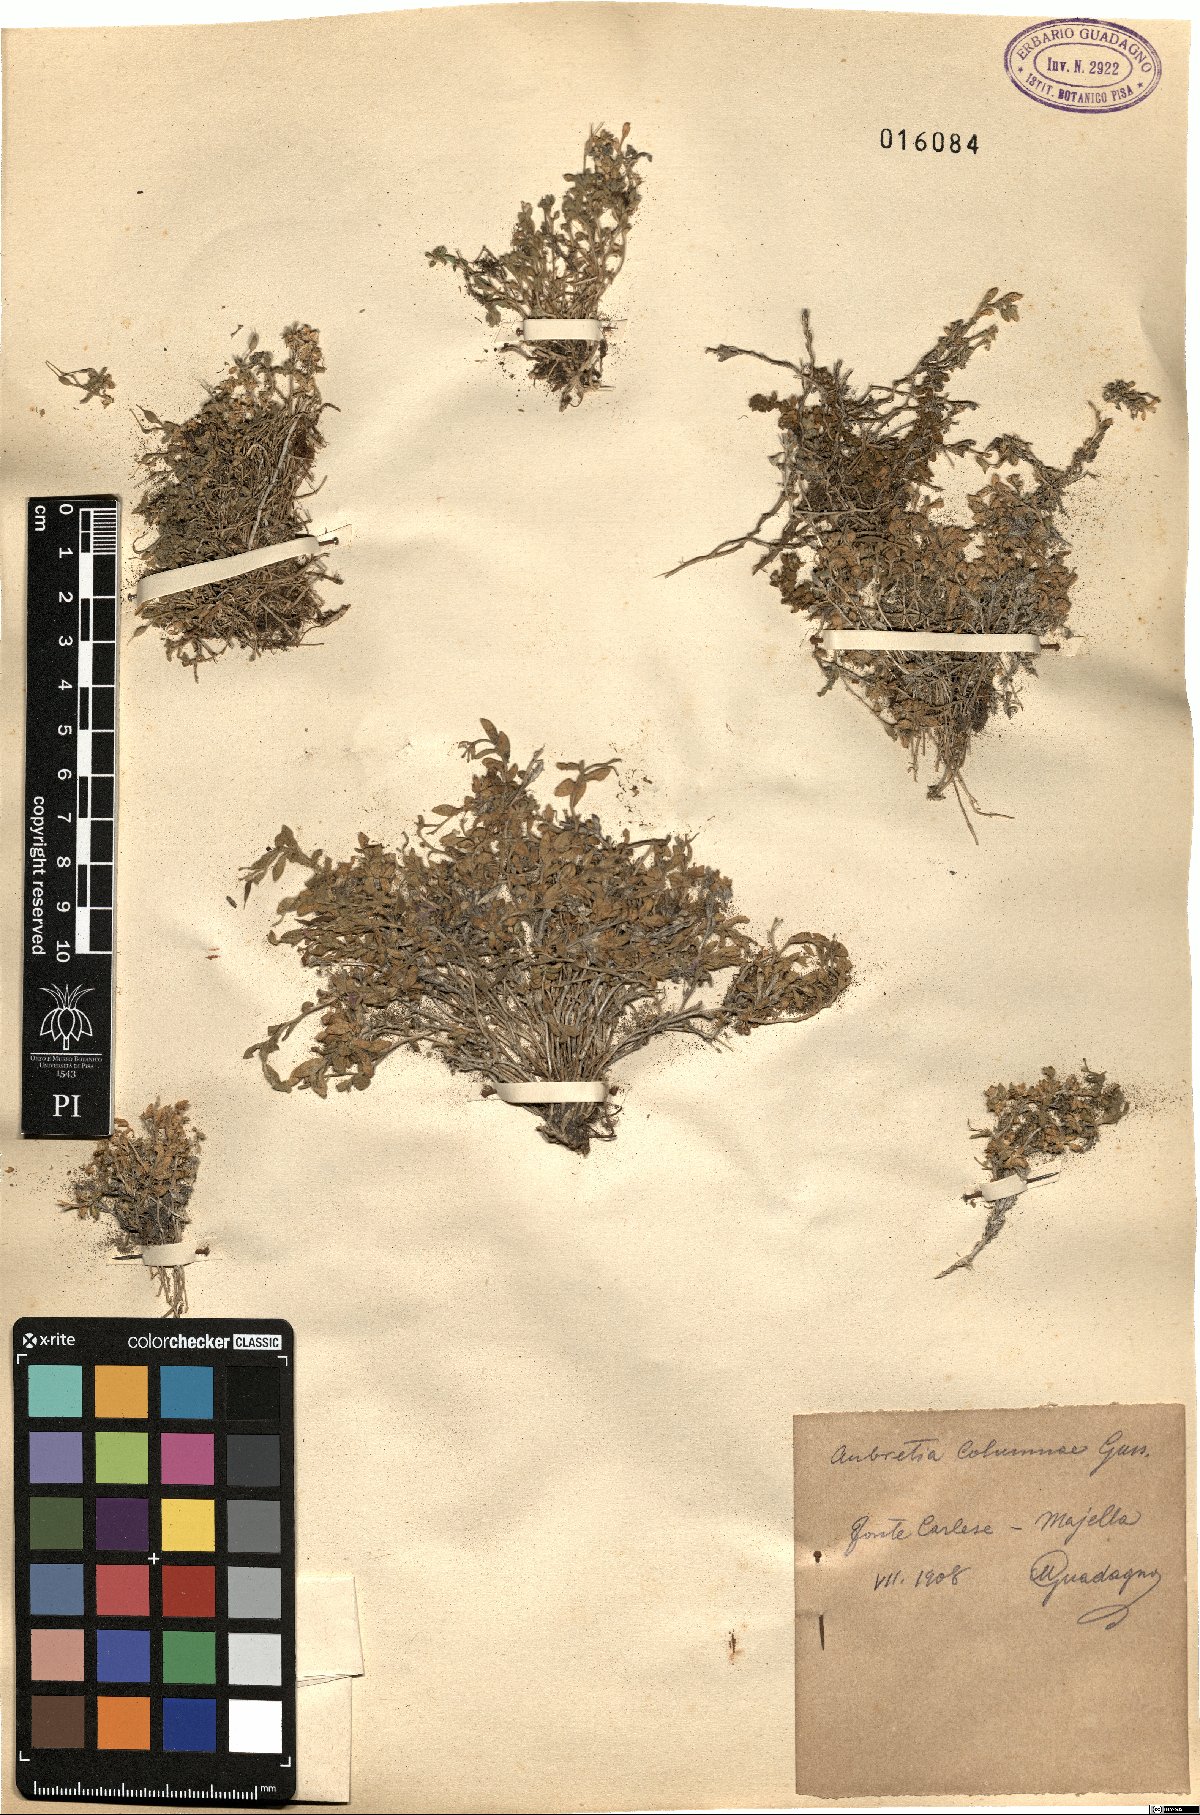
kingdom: Plantae
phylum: Tracheophyta
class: Magnoliopsida
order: Brassicales
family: Brassicaceae
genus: Aubrieta
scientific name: Aubrieta columnae
